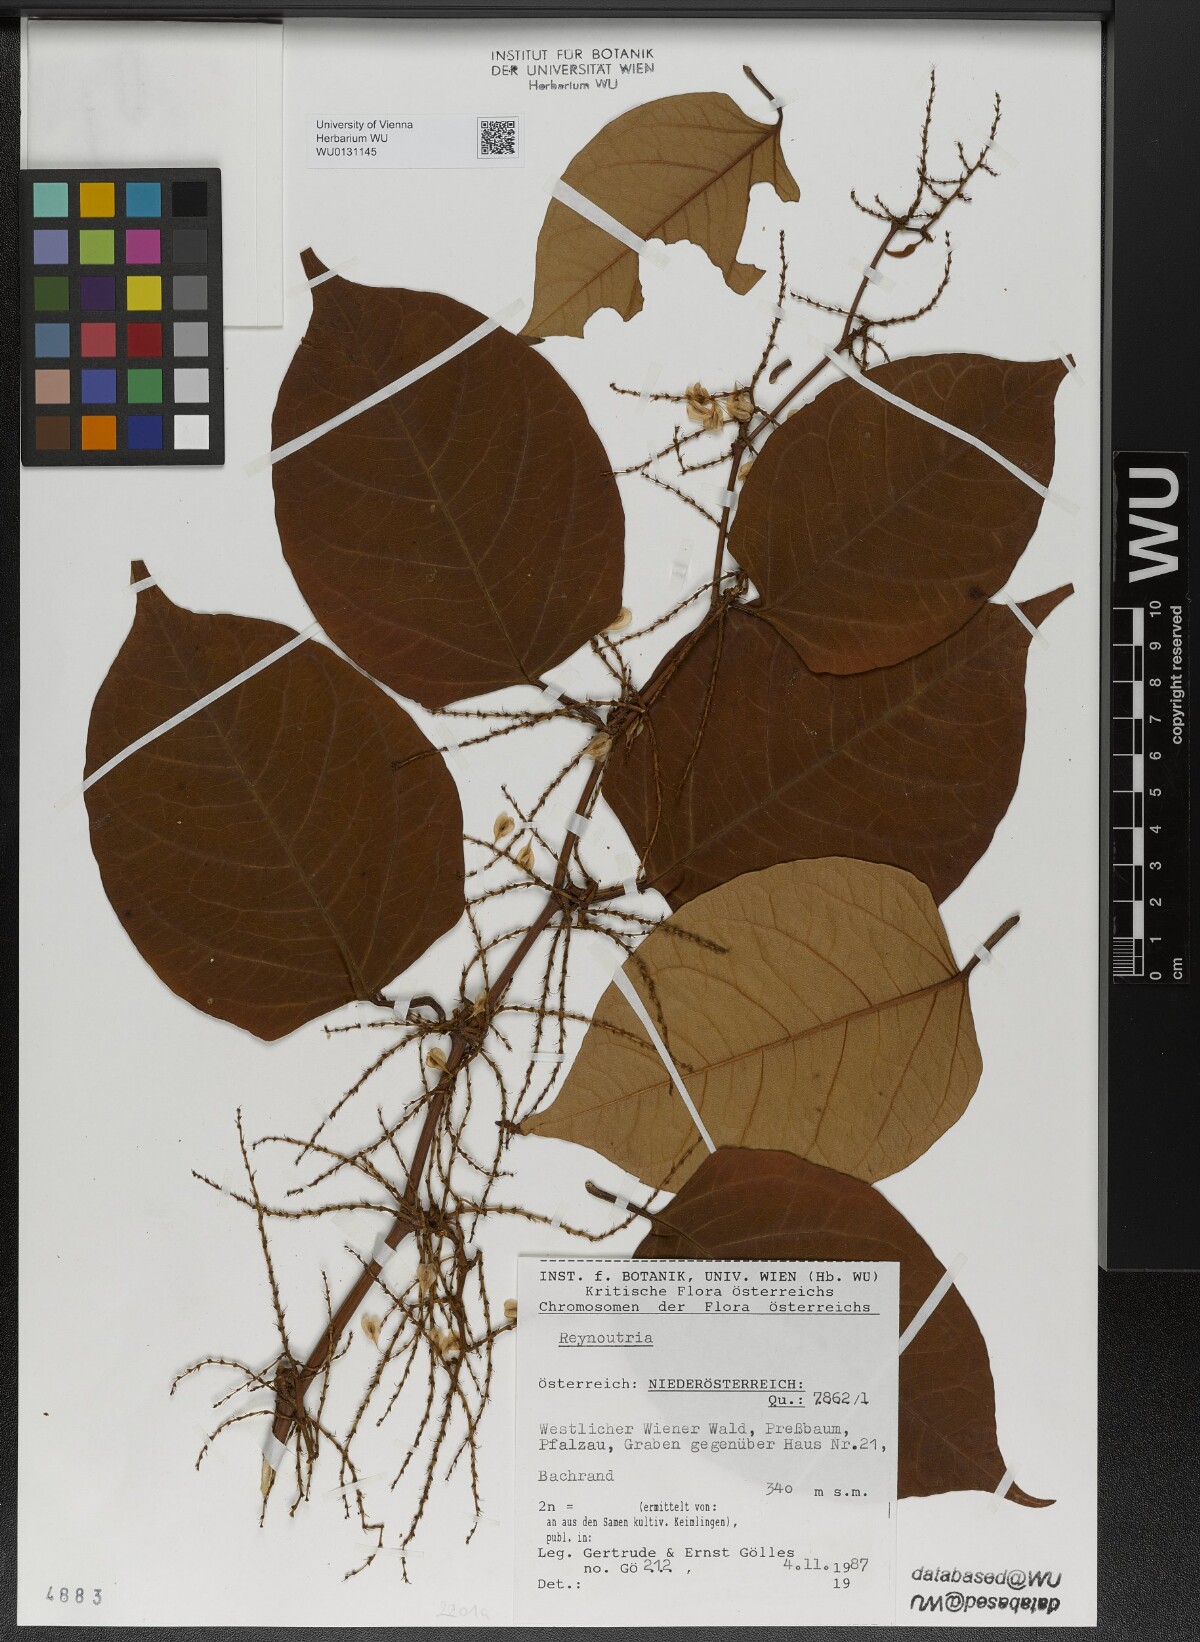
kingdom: Plantae
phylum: Tracheophyta
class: Magnoliopsida
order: Caryophyllales
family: Polygonaceae
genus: Reynoutria
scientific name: Reynoutria bohemica
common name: Bohemian knotweed
